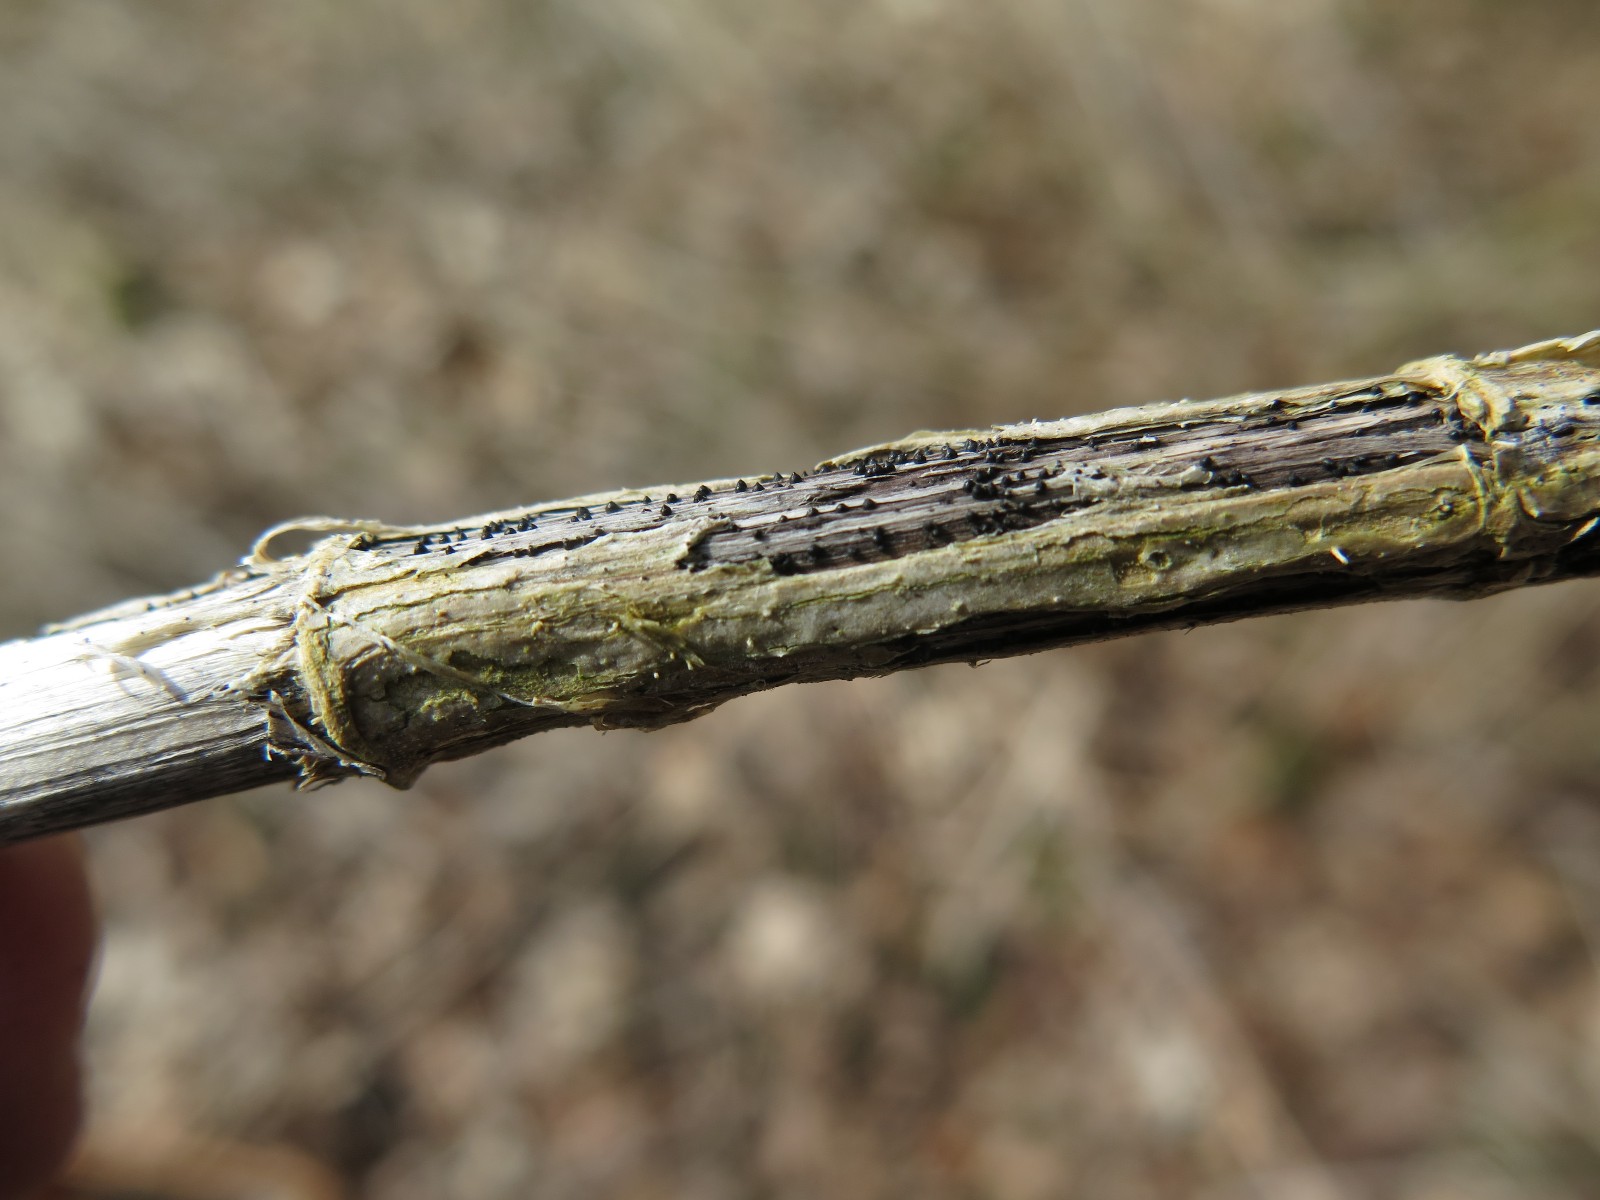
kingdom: Fungi
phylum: Ascomycota
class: Dothideomycetes
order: Pleosporales
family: Leptosphaeriaceae
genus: Leptosphaeria
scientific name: Leptosphaeria acuta
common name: spids kulkegle
